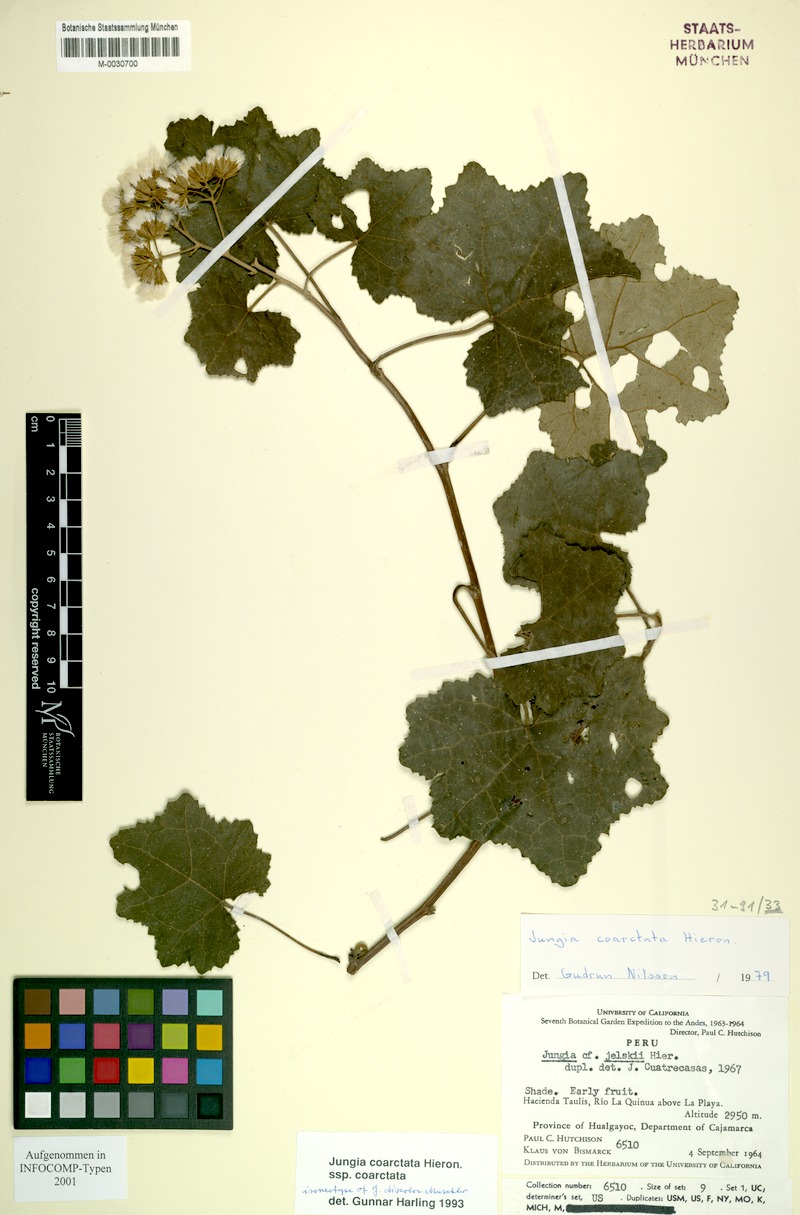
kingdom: Plantae
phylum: Tracheophyta
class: Magnoliopsida
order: Asterales
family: Asteraceae
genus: Jungia
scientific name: Jungia coarctata
